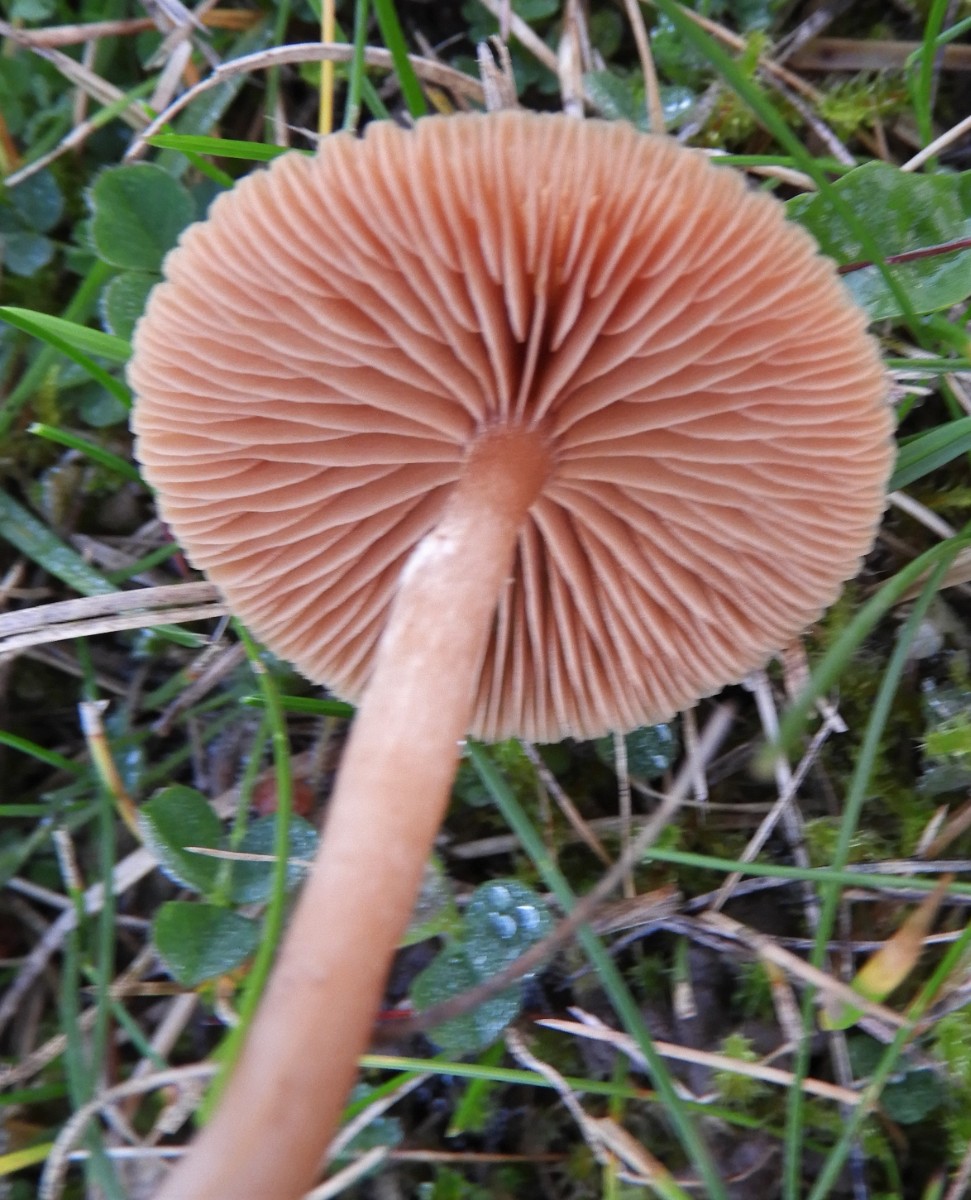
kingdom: Fungi
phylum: Basidiomycota
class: Agaricomycetes
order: Agaricales
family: Tubariaceae
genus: Tubaria
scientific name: Tubaria furfuracea
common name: kliddet fnughat
